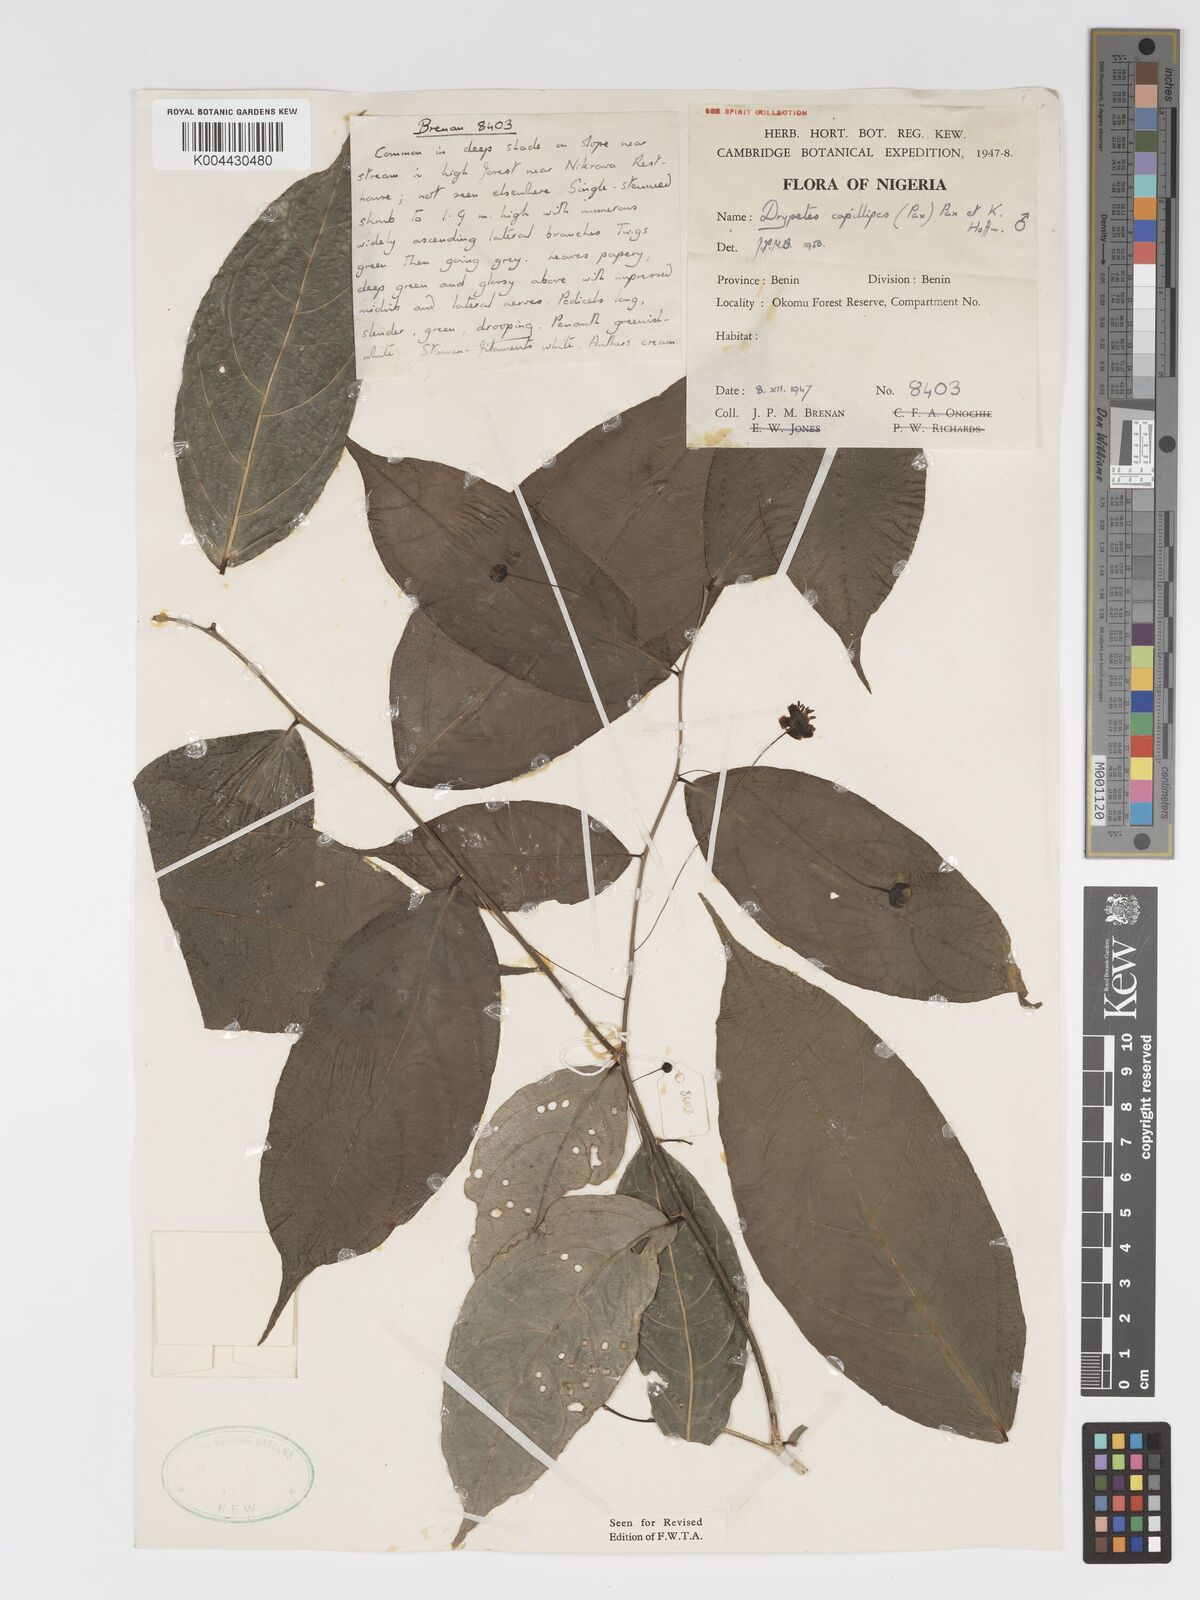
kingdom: Plantae
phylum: Tracheophyta
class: Magnoliopsida
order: Malpighiales
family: Putranjivaceae
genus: Drypetes
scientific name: Drypetes capillipes
